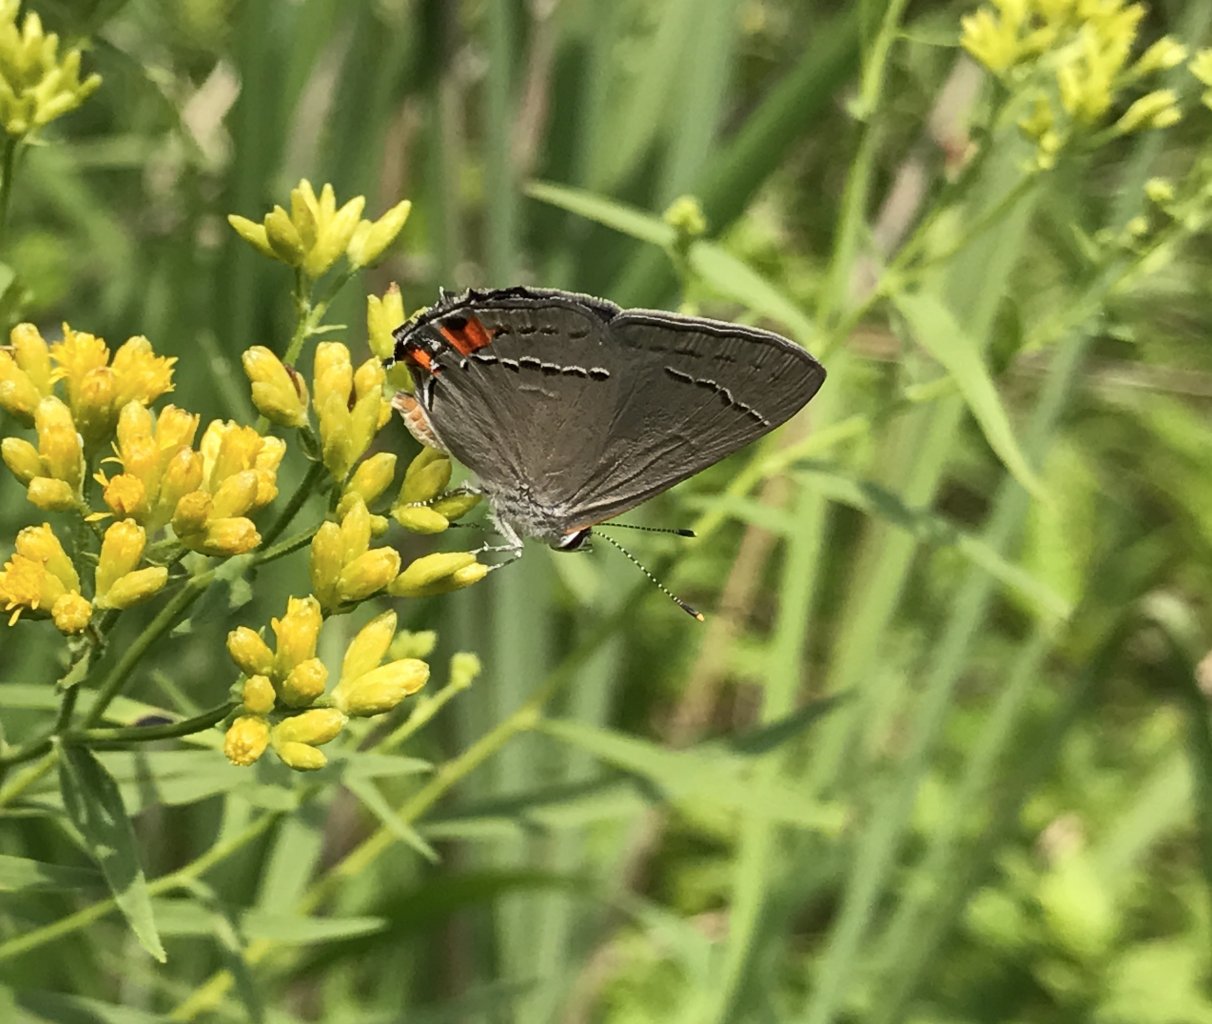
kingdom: Animalia
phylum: Arthropoda
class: Insecta
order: Lepidoptera
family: Lycaenidae
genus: Strymon
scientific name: Strymon melinus
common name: Gray Hairstreak
